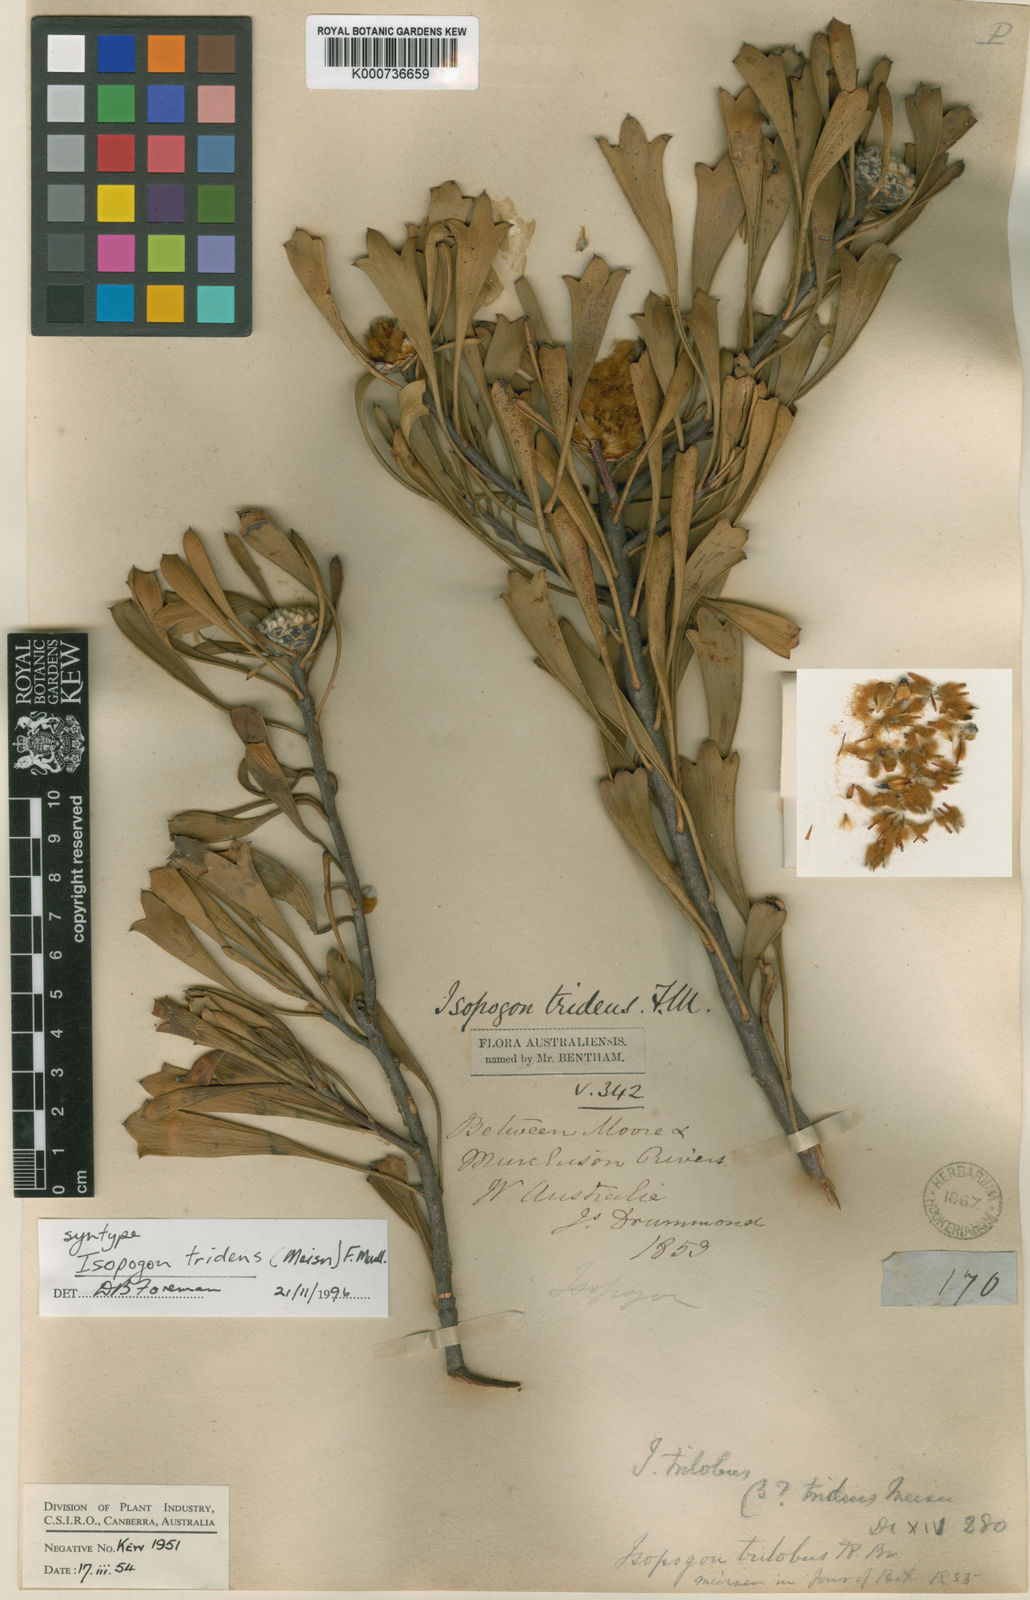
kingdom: Plantae
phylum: Tracheophyta
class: Magnoliopsida
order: Proteales
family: Proteaceae
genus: Isopogon
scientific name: Isopogon tridens
